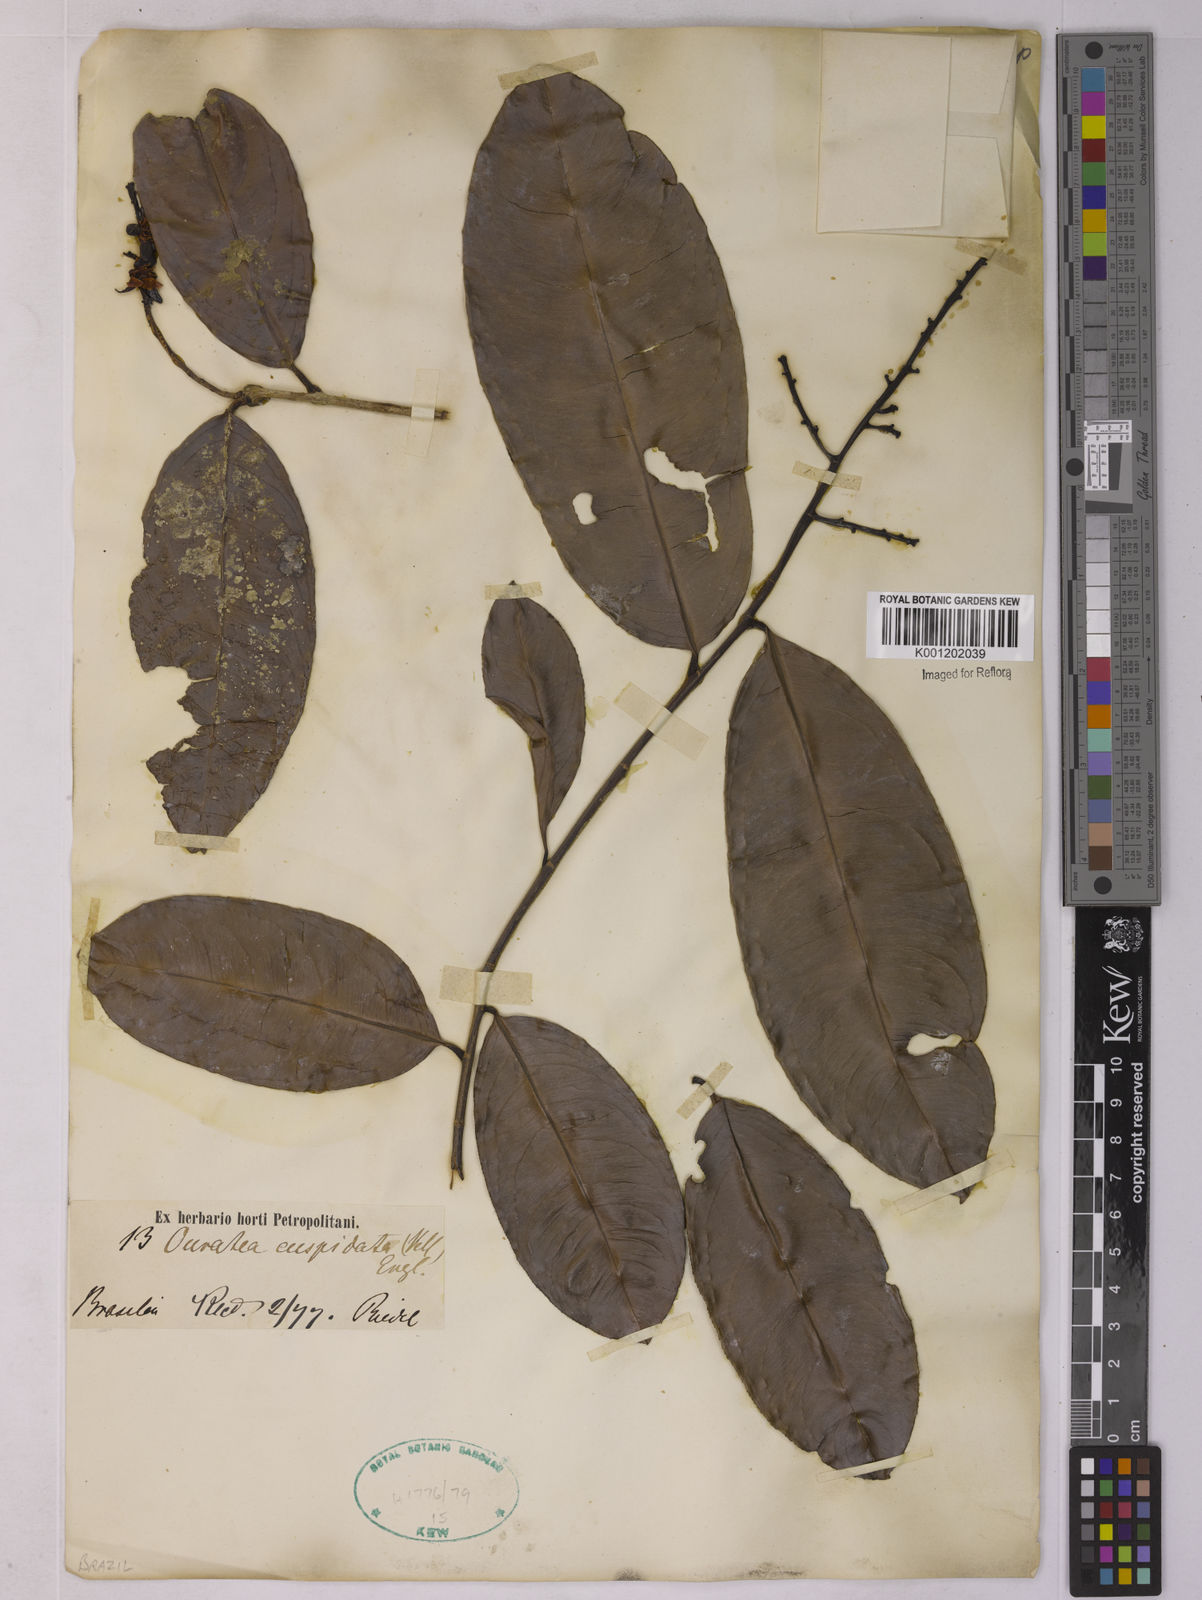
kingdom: Plantae
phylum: Tracheophyta
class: Magnoliopsida
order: Malpighiales
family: Ochnaceae
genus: Ouratea
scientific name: Ouratea cuspidata
